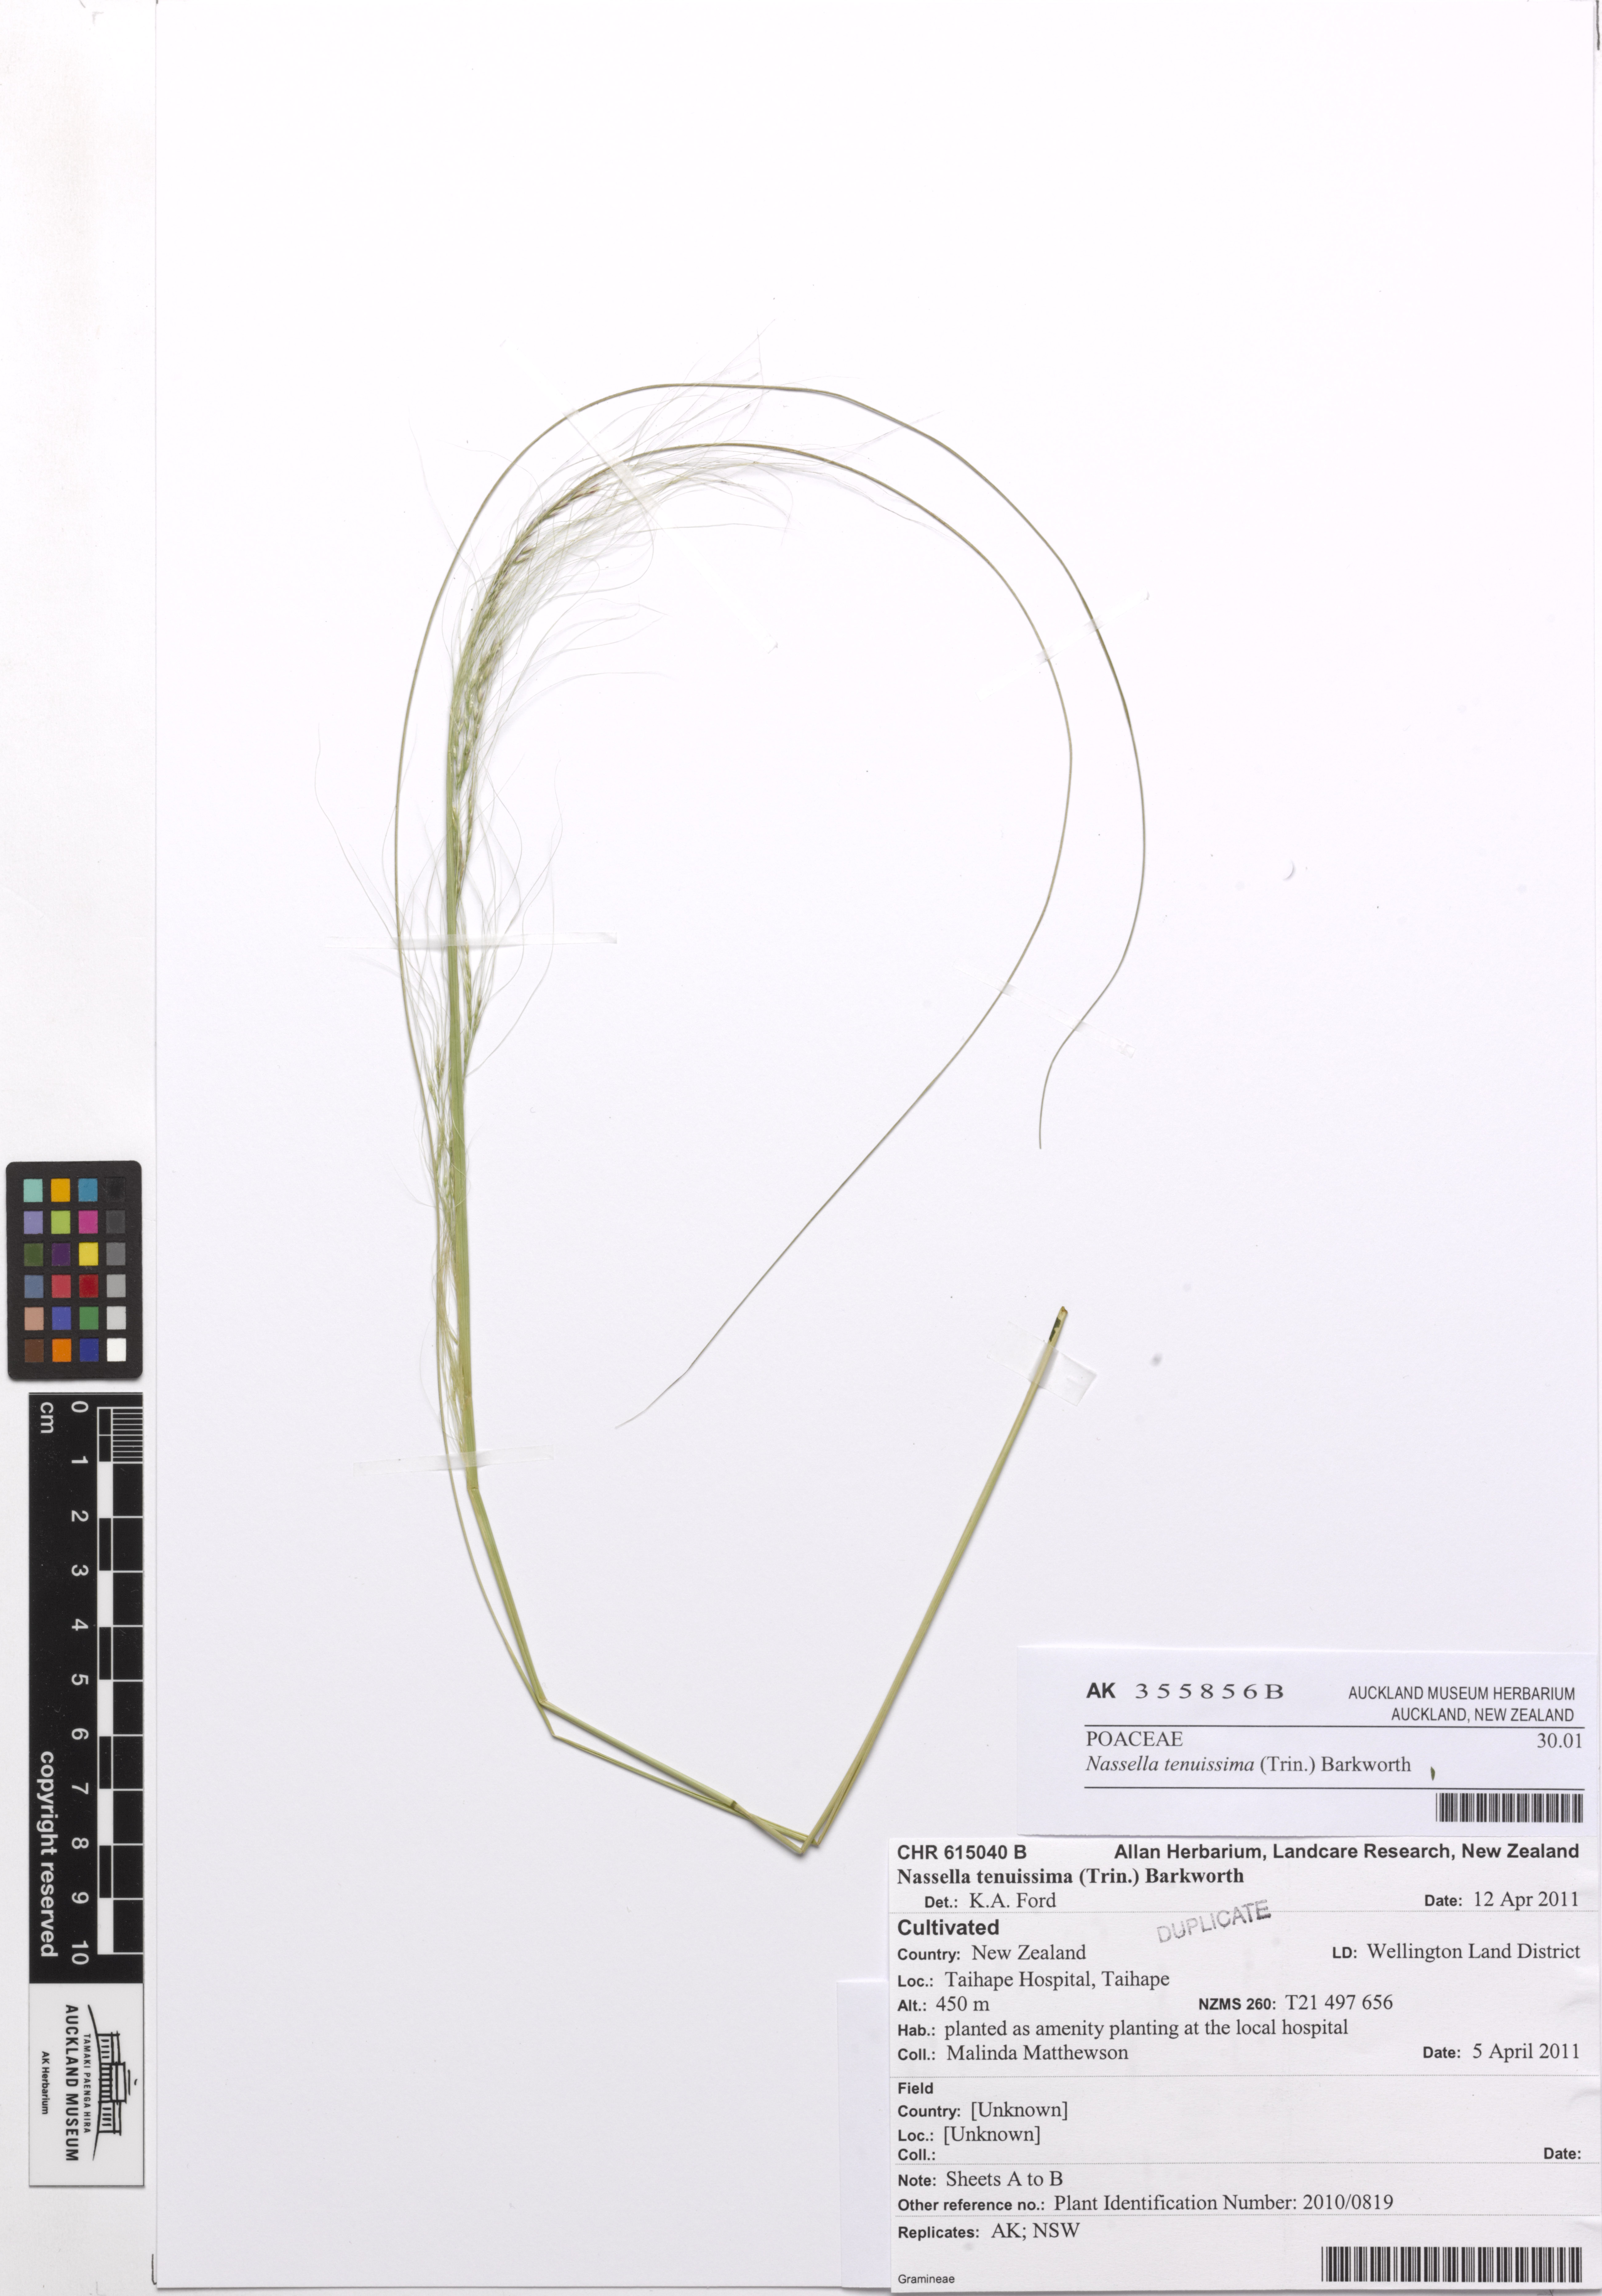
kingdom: Plantae
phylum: Tracheophyta
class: Liliopsida
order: Poales
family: Poaceae
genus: Nassella
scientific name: Nassella tenuissima
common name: Argentine needlegrass
